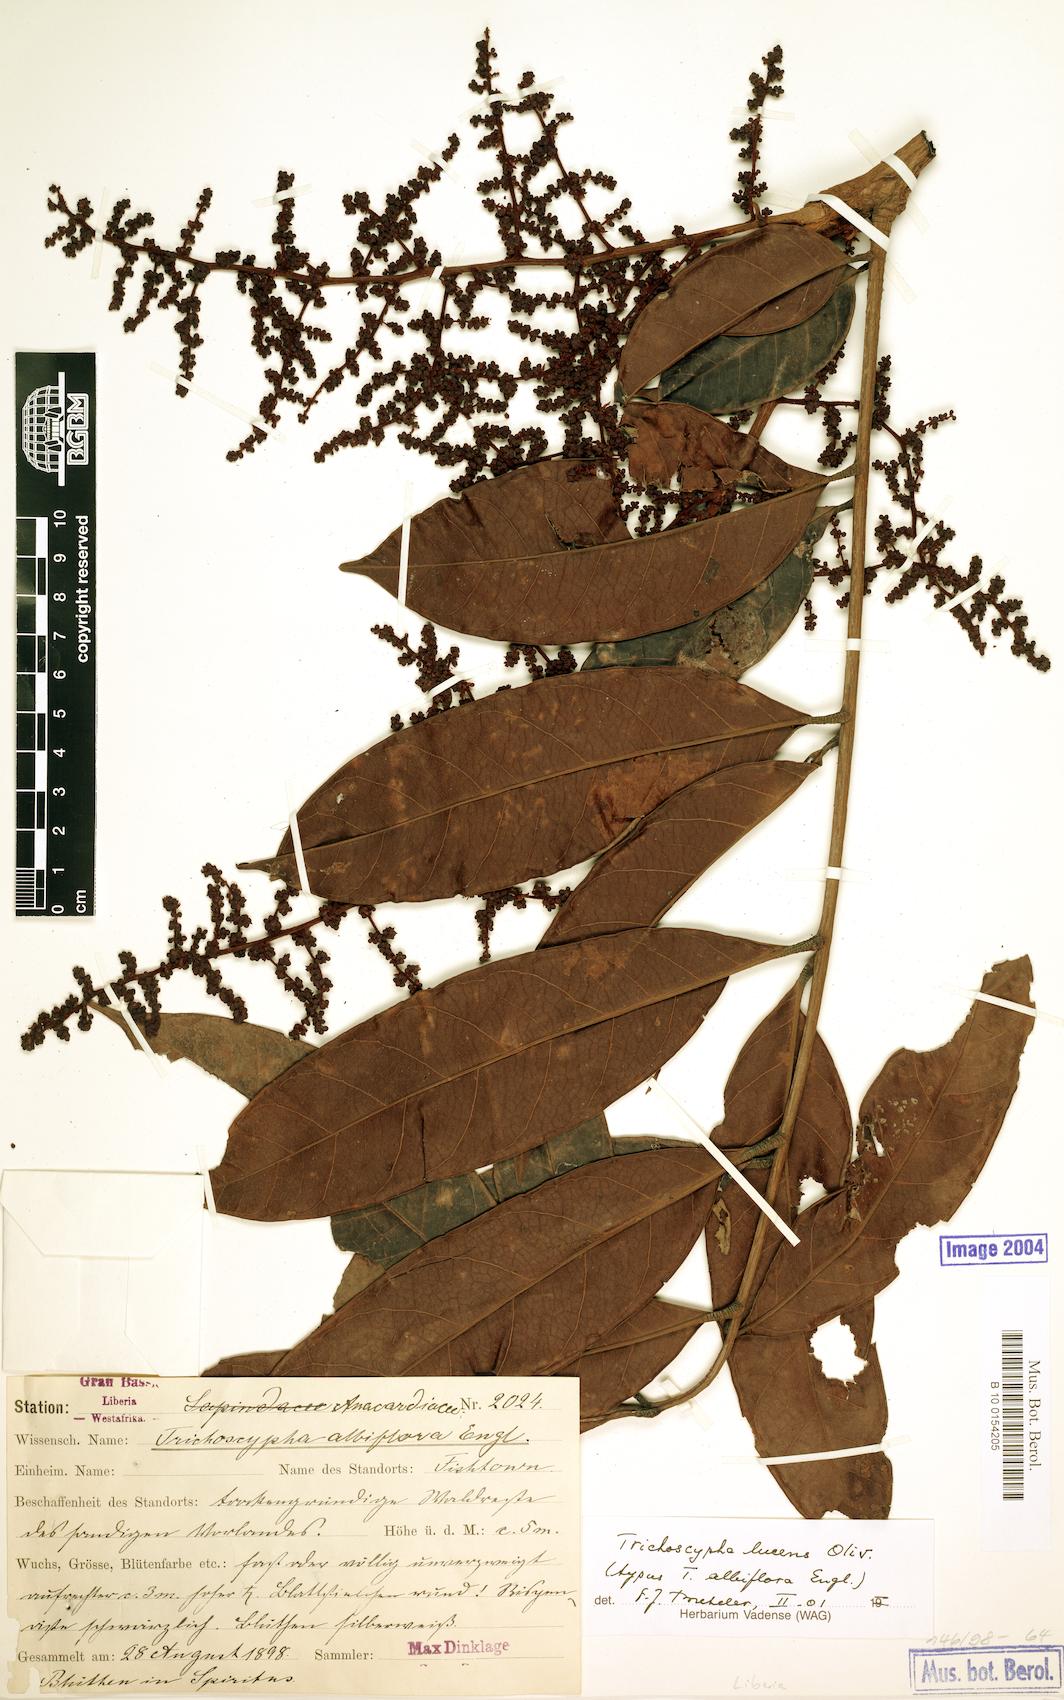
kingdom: Plantae
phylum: Tracheophyta
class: Magnoliopsida
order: Sapindales
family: Anacardiaceae
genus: Trichoscypha
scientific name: Trichoscypha lucens
